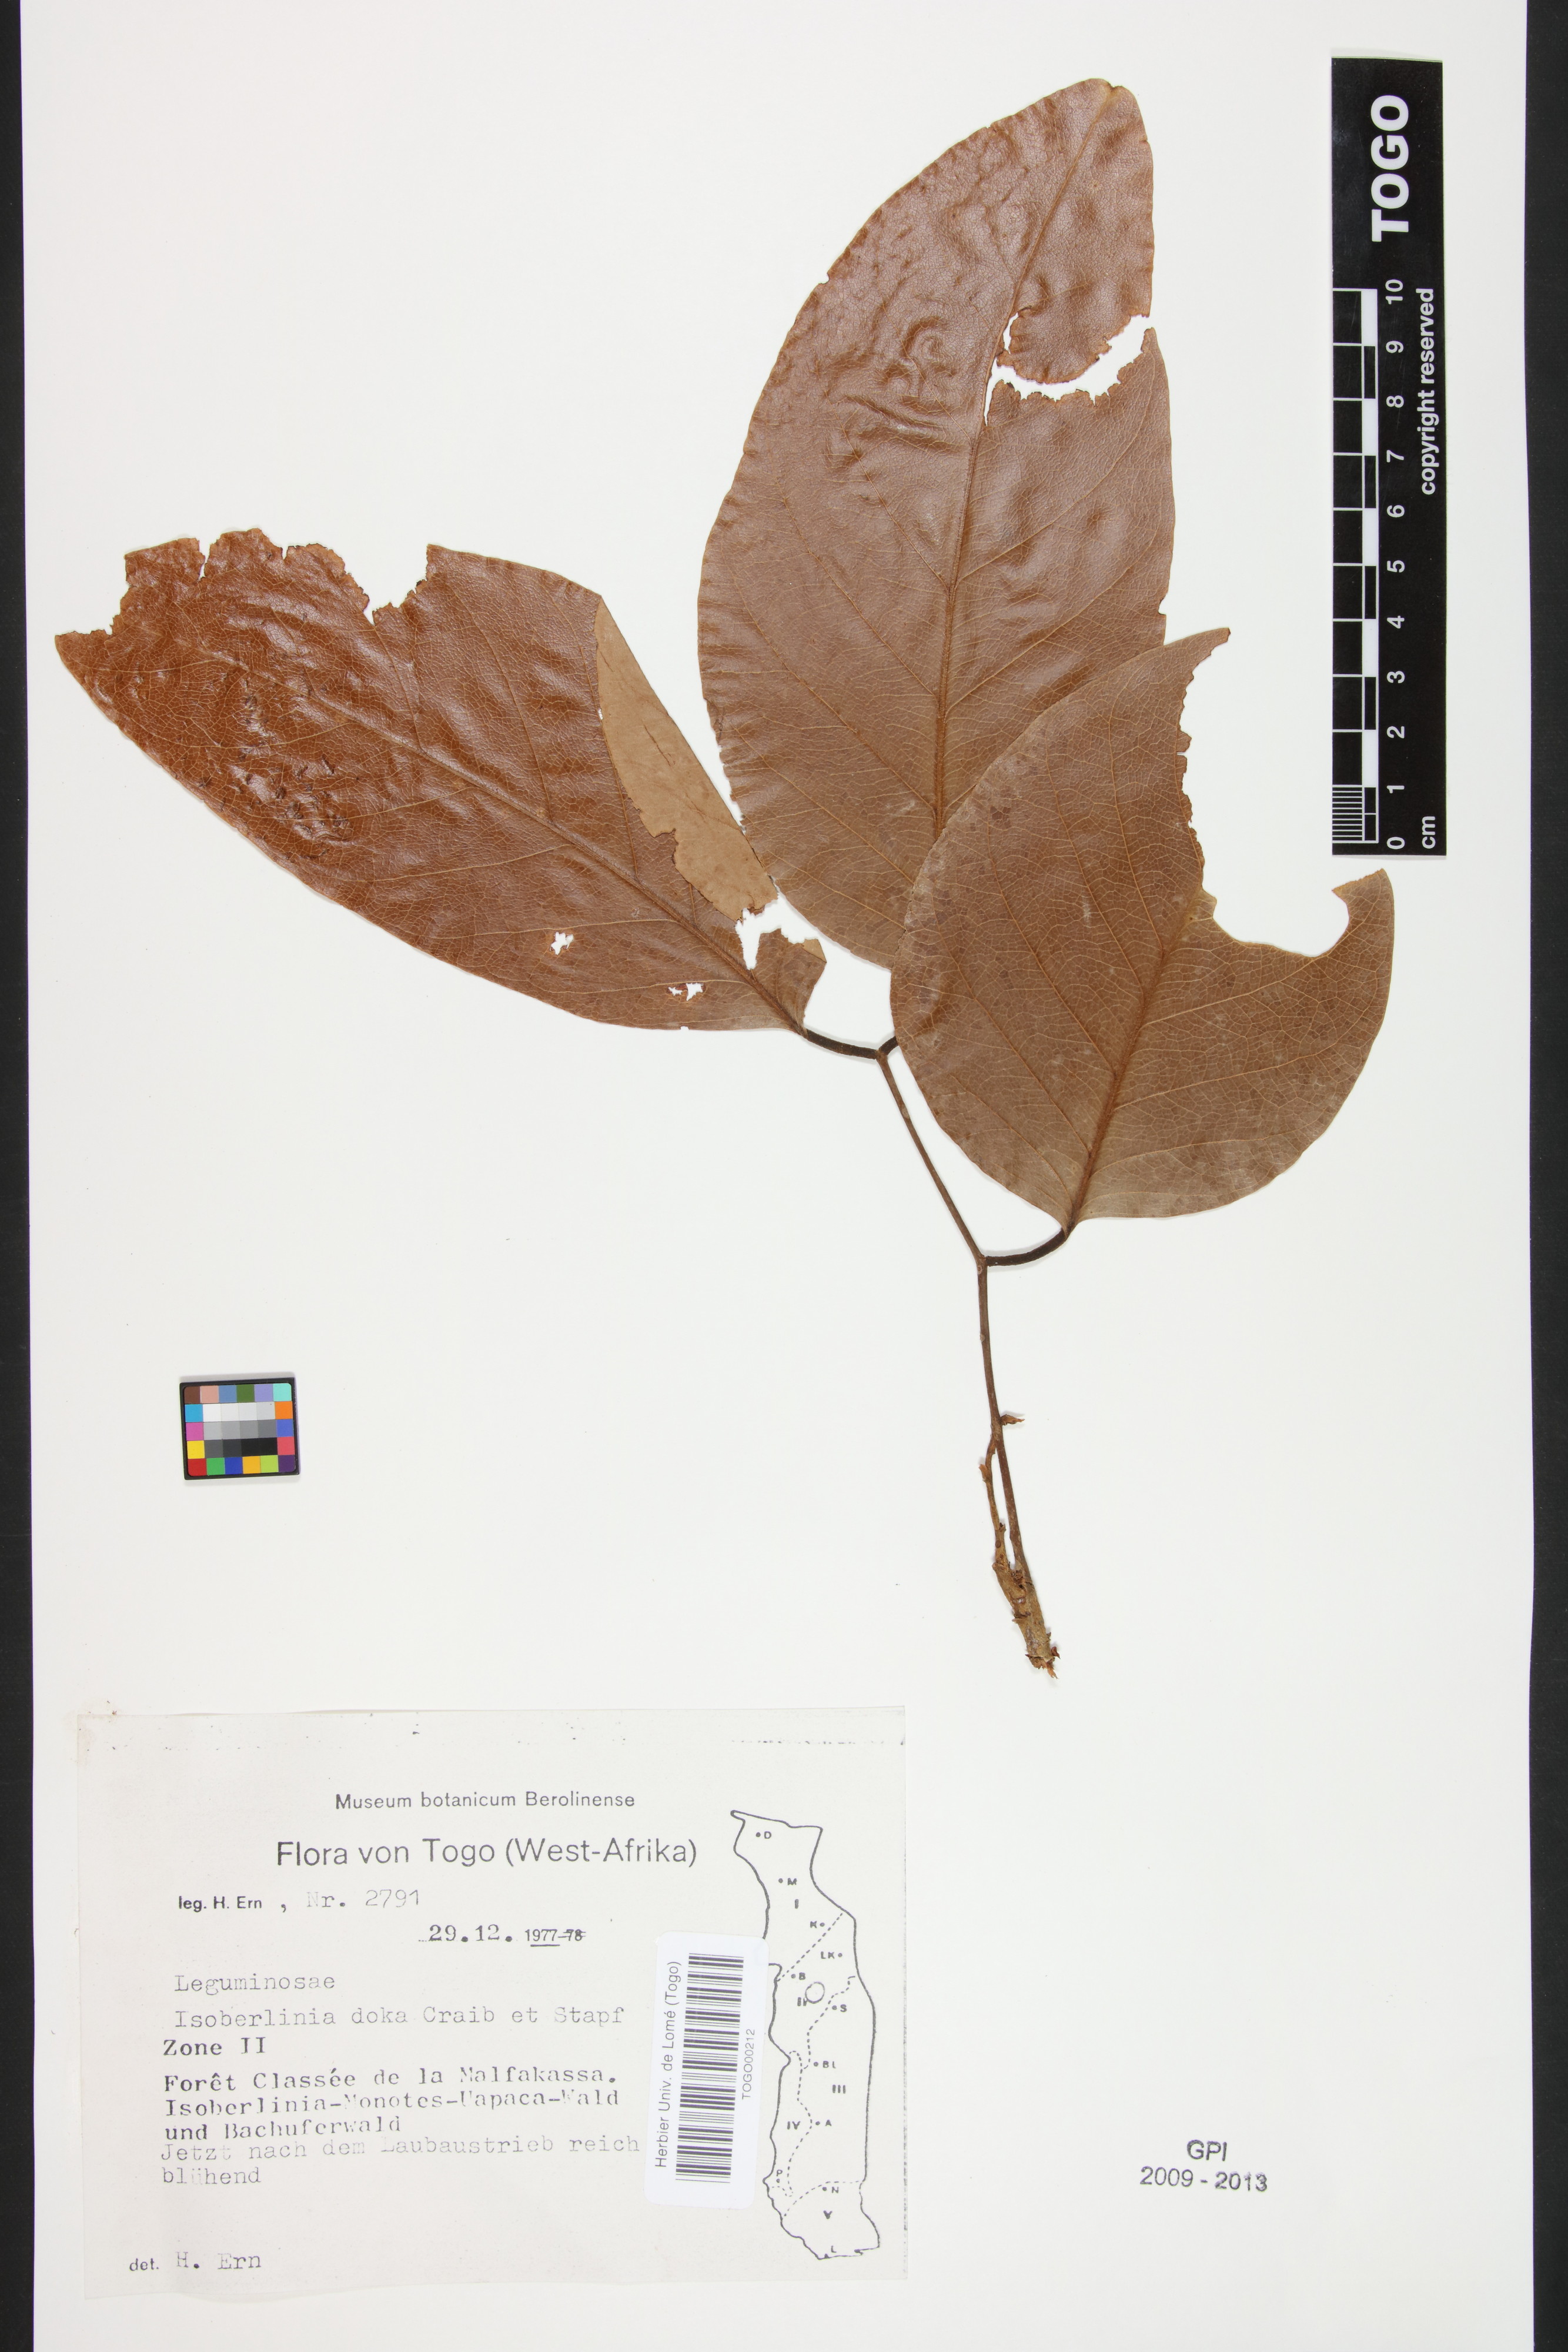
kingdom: Plantae
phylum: Tracheophyta
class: Magnoliopsida
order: Fabales
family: Fabaceae
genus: Isoberlinia
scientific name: Isoberlinia doka
